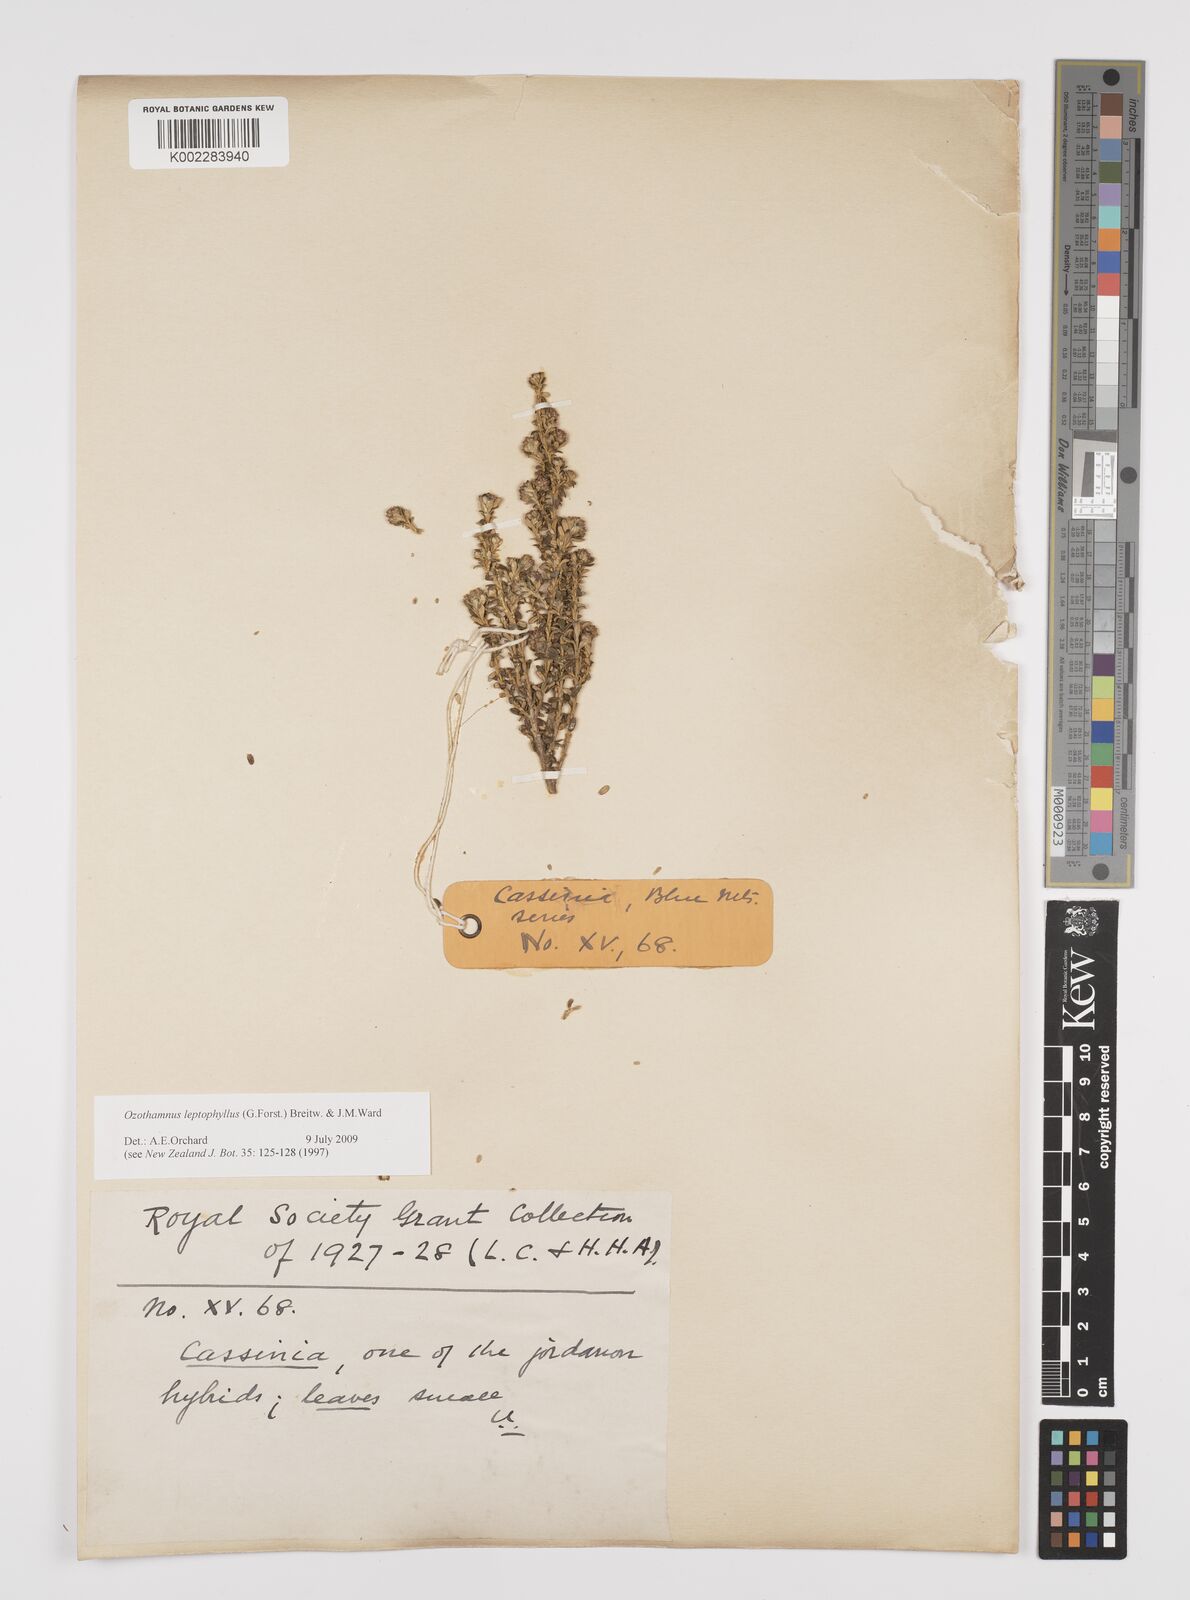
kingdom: Plantae
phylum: Tracheophyta
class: Magnoliopsida
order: Asterales
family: Asteraceae
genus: Ozothamnus
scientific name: Ozothamnus leptophyllus
